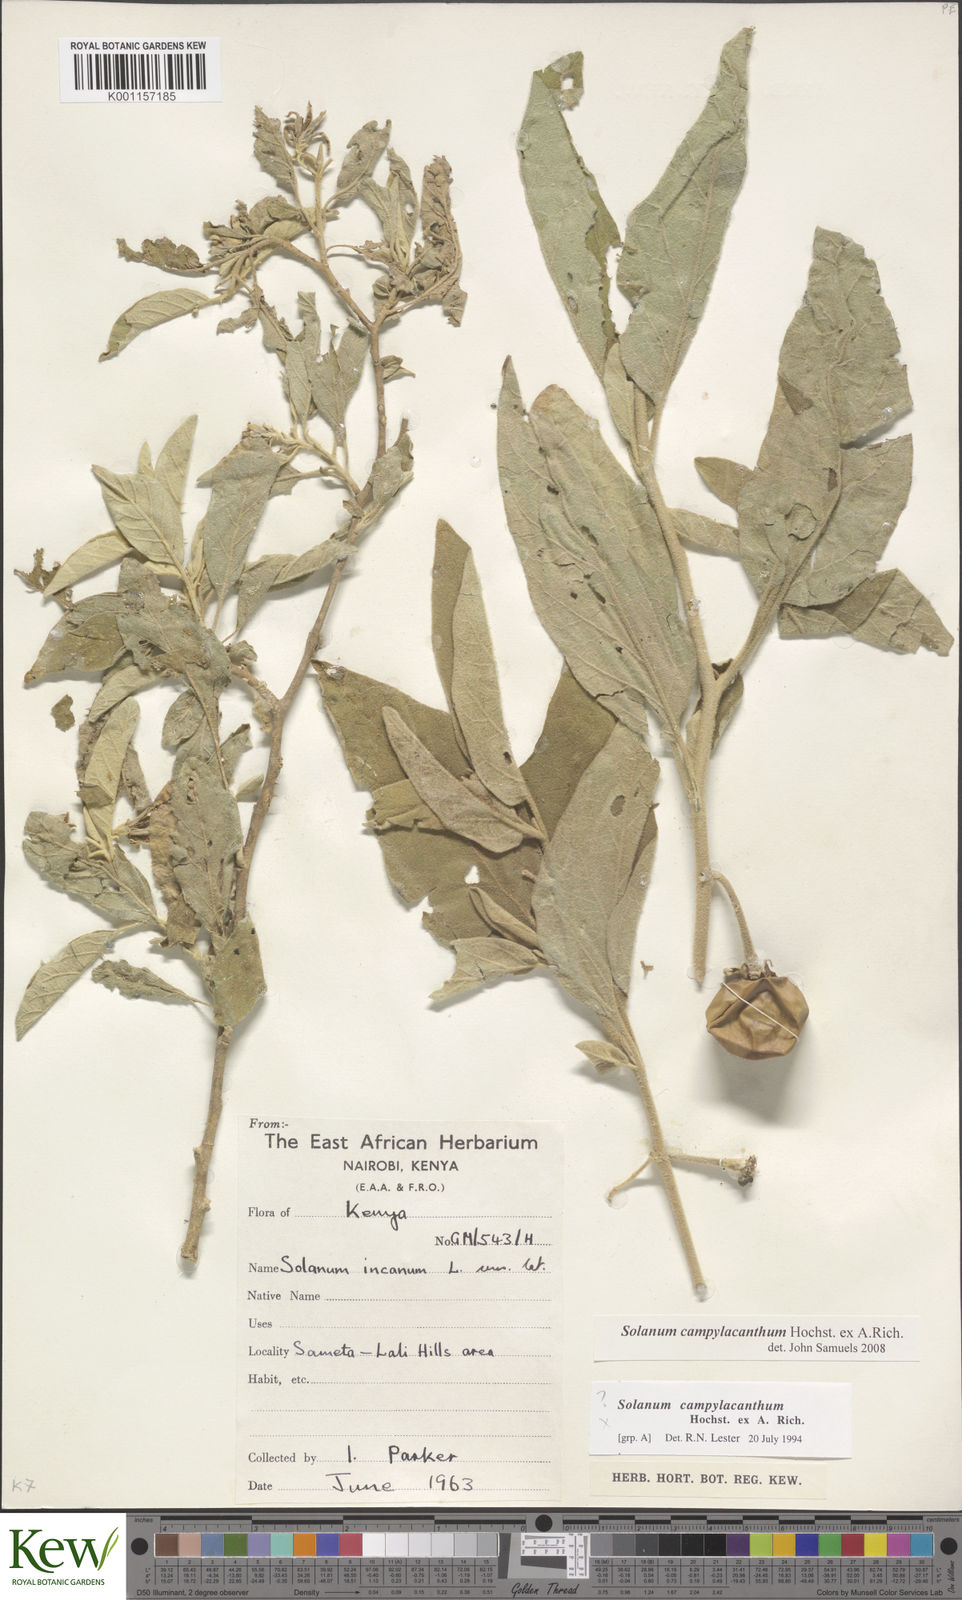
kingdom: Plantae
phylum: Tracheophyta
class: Magnoliopsida
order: Solanales
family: Solanaceae
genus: Solanum
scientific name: Solanum campylacanthum
